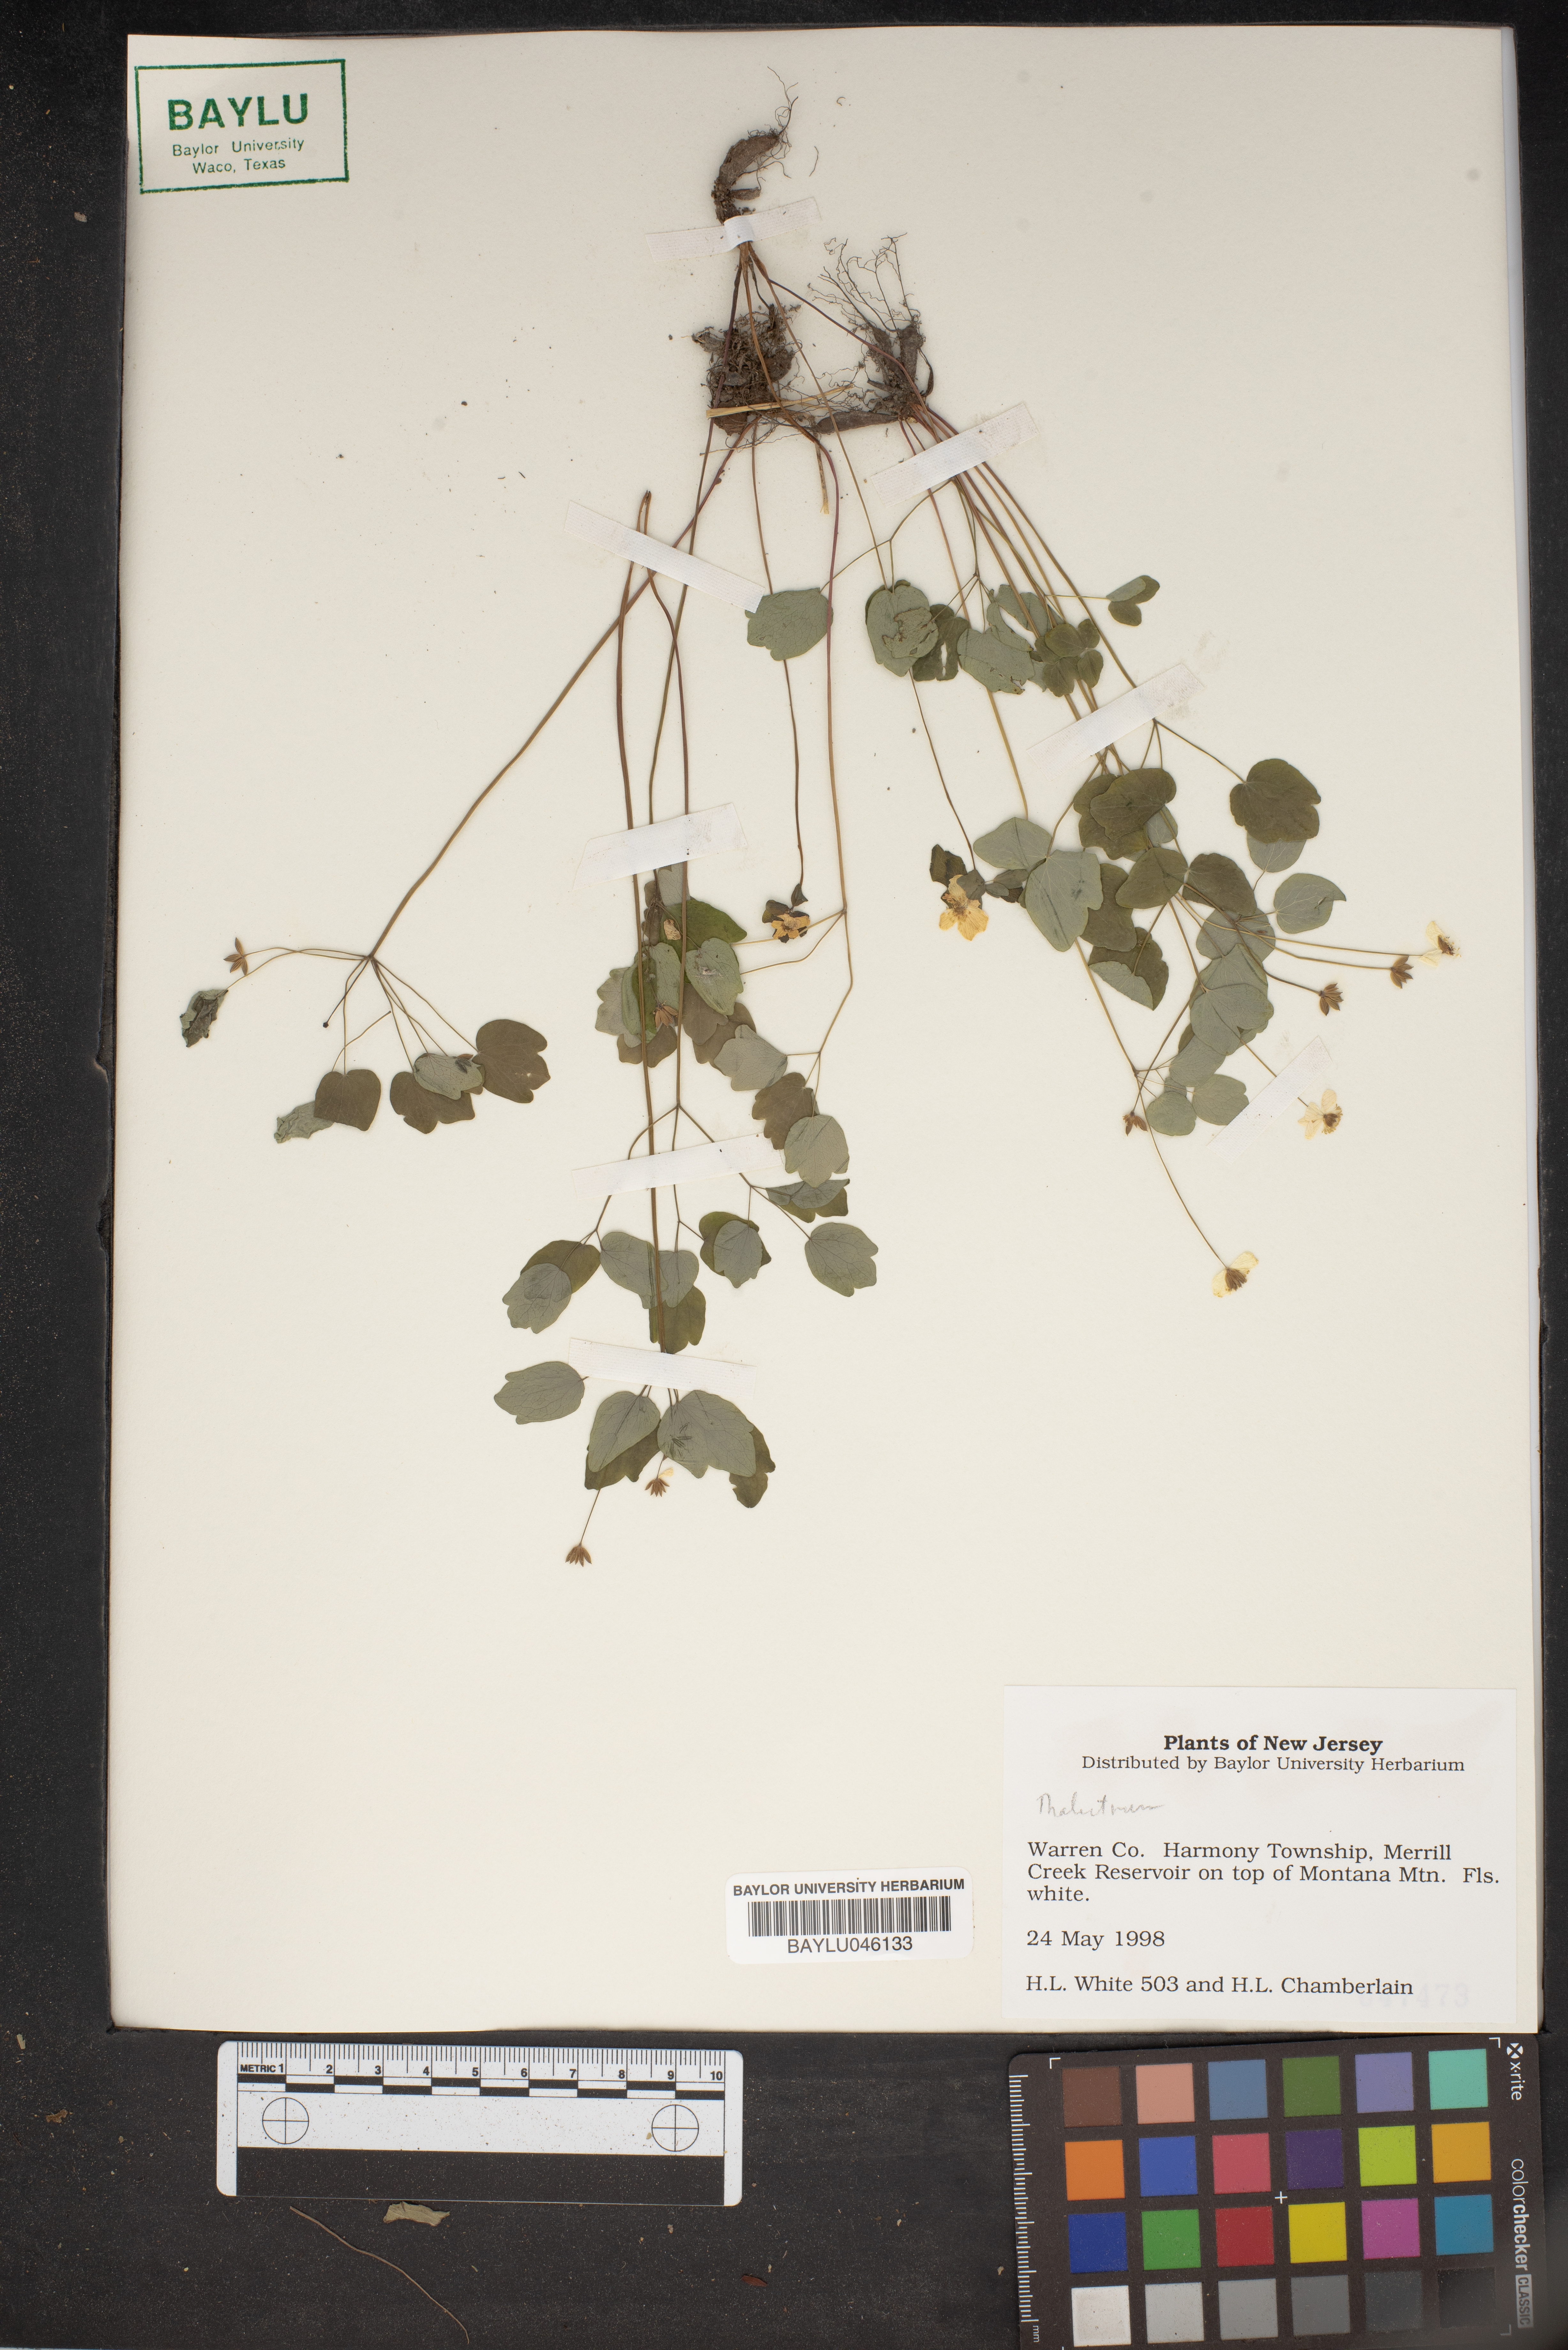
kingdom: Plantae
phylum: Tracheophyta
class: Magnoliopsida
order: Ranunculales
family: Ranunculaceae
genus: Thalictrum
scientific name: Thalictrum
